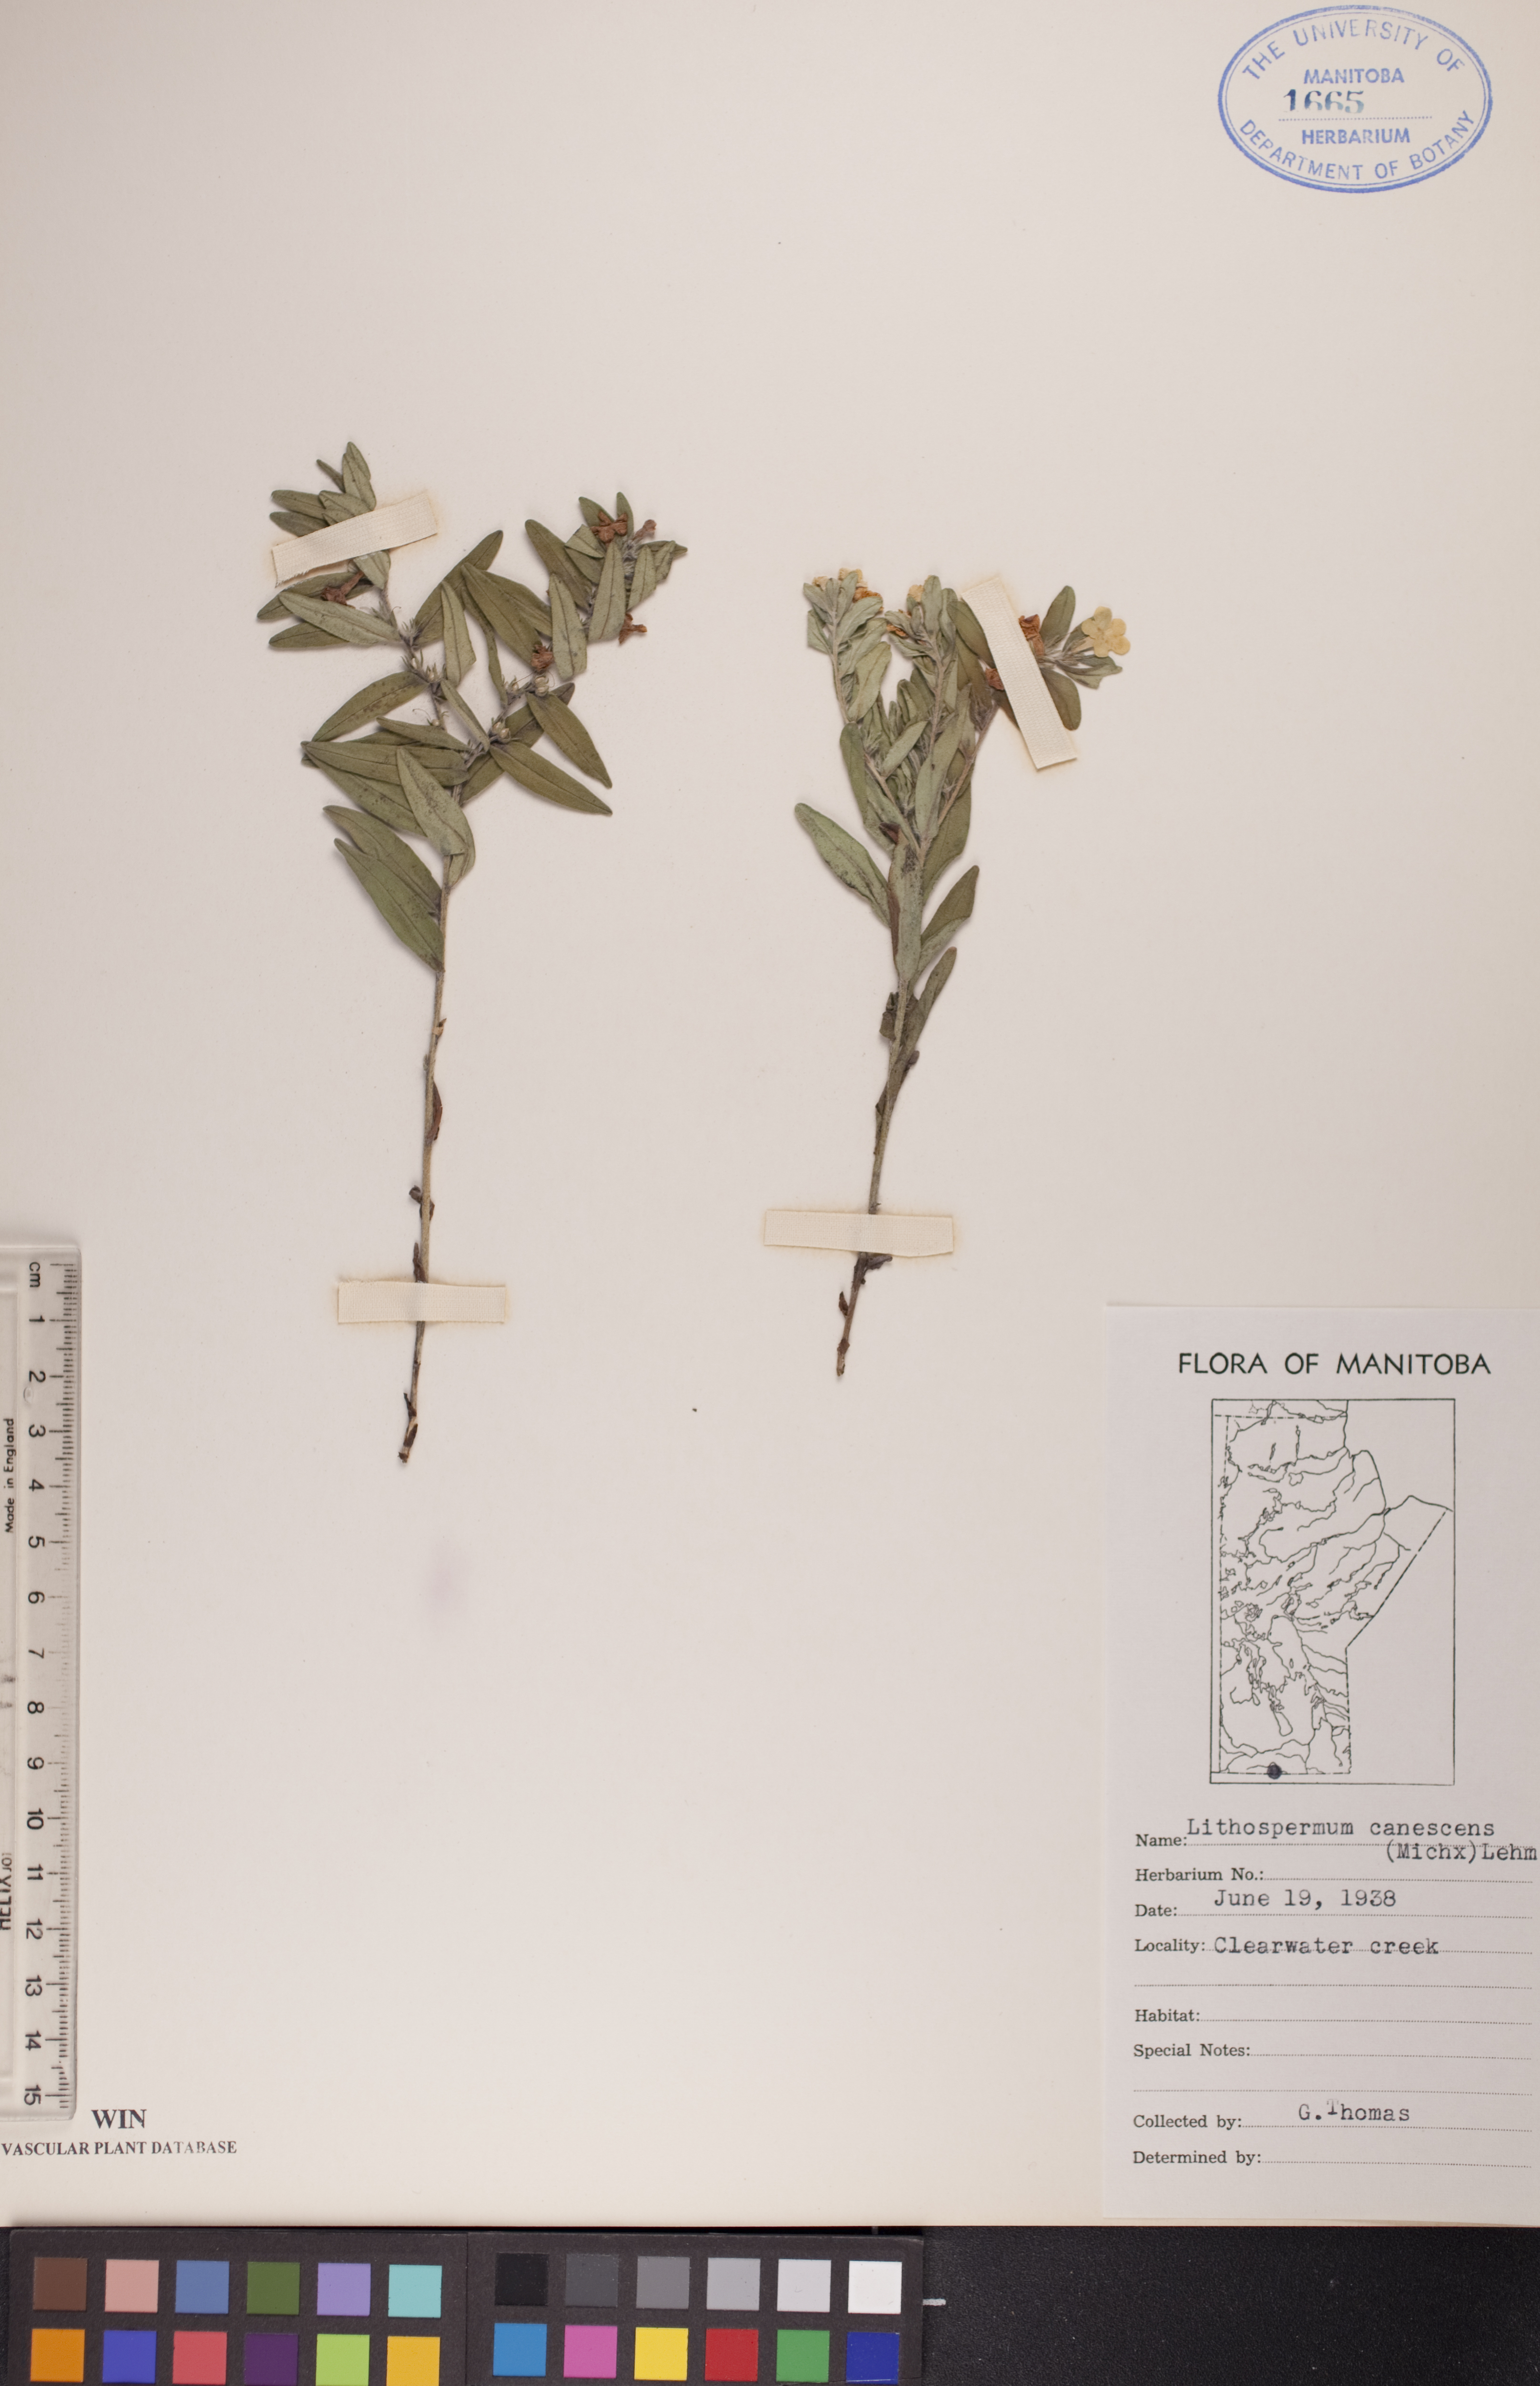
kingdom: Plantae
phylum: Tracheophyta
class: Magnoliopsida
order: Boraginales
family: Boraginaceae
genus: Lithospermum
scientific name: Lithospermum canescens
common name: Hoary puccoon
